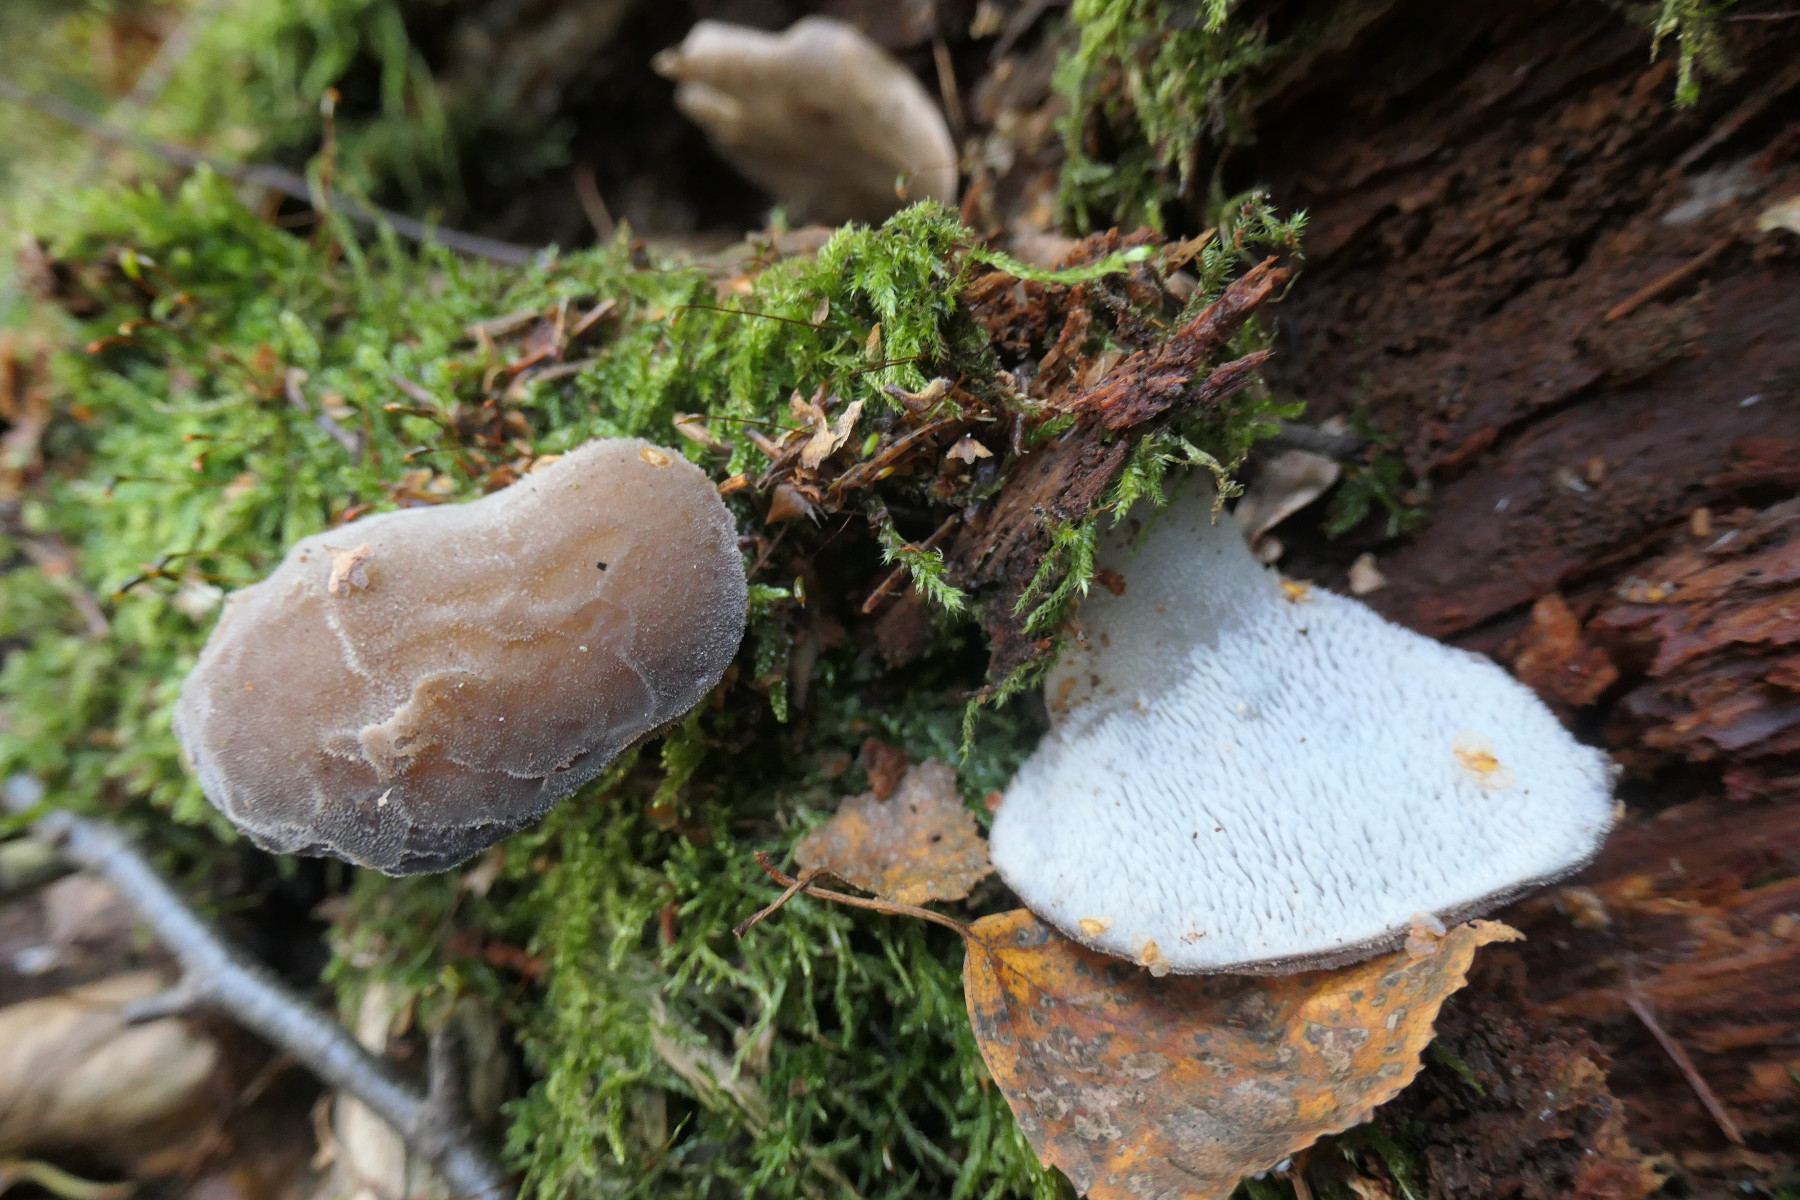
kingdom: Fungi
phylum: Basidiomycota
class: Agaricomycetes
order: Auriculariales
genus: Pseudohydnum
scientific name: Pseudohydnum gelatinosum
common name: bævretand
